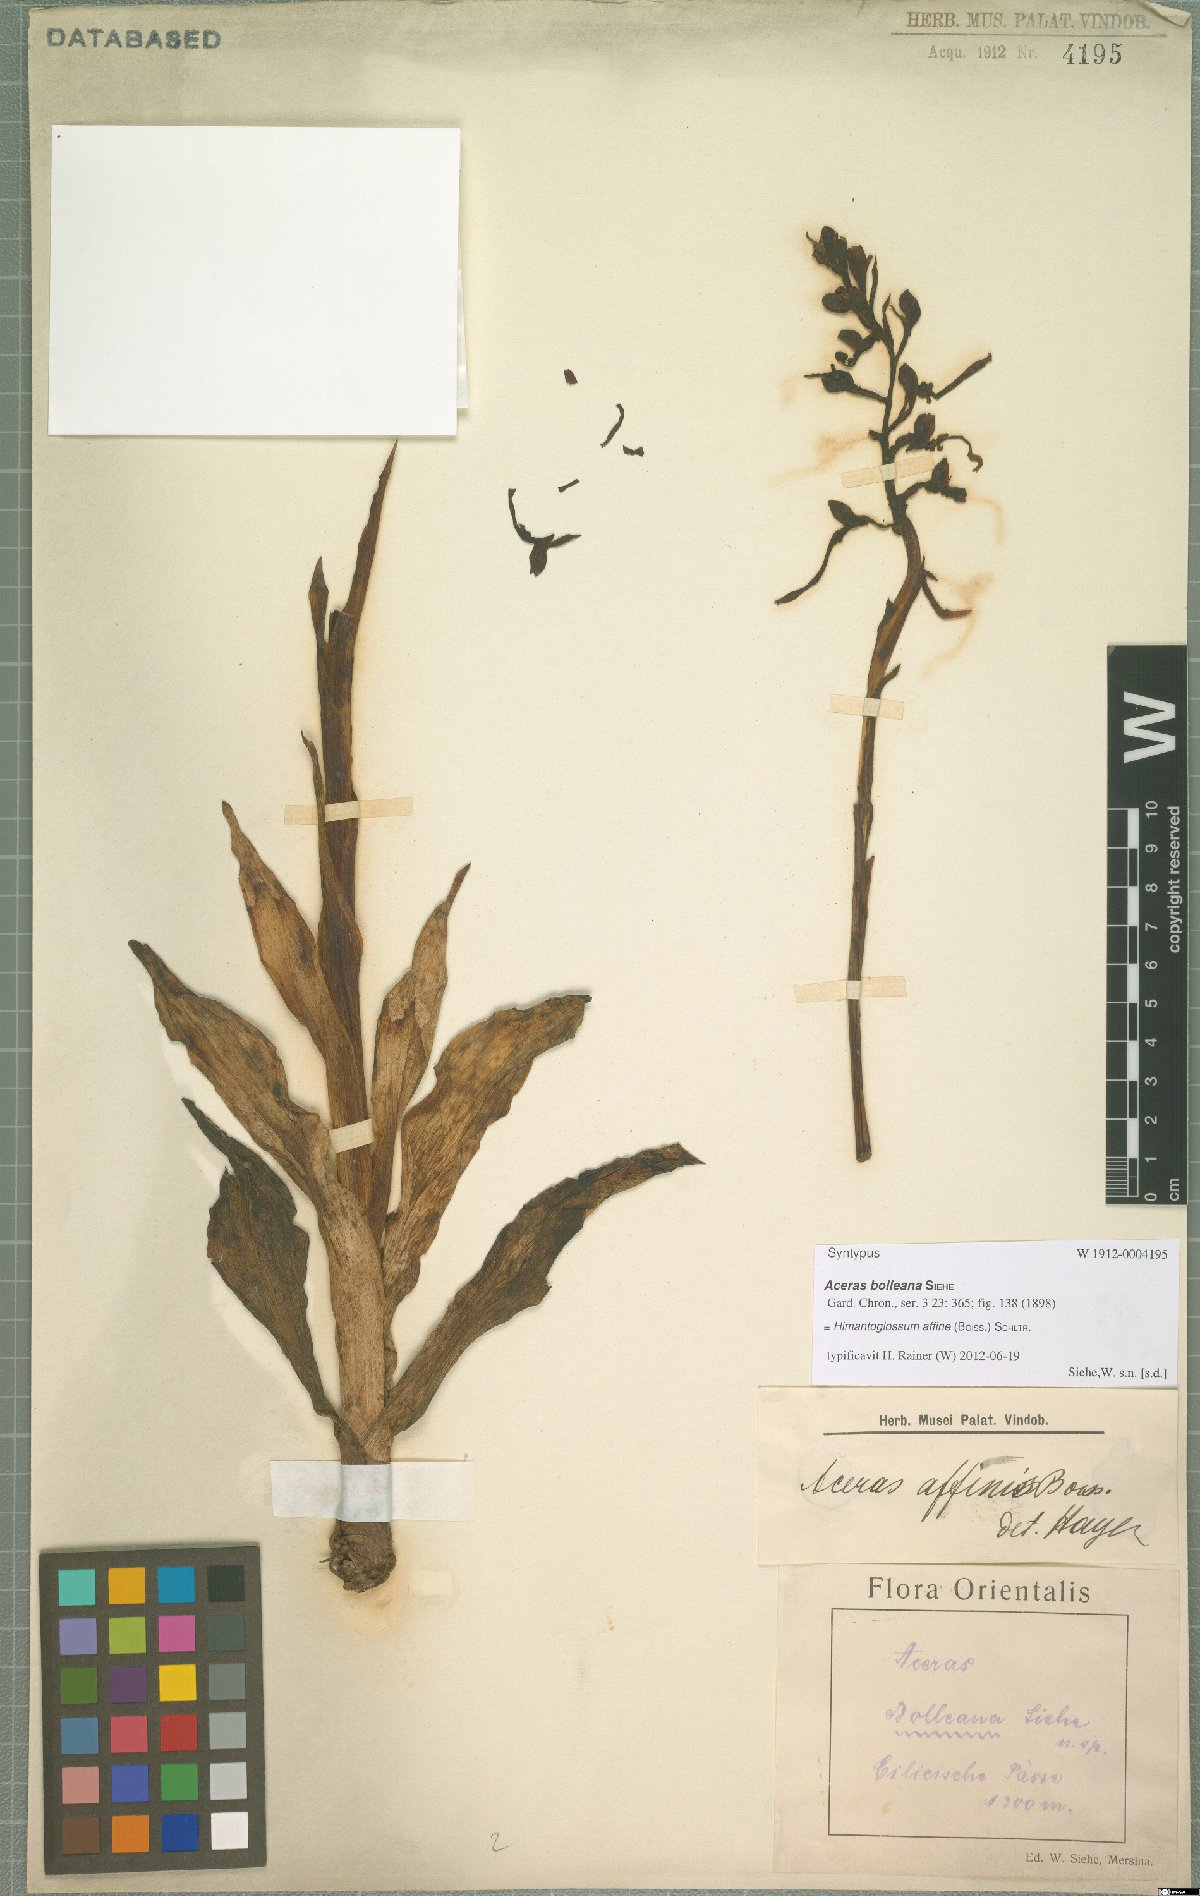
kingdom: Plantae
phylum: Tracheophyta
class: Liliopsida
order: Asparagales
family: Orchidaceae
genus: Himantoglossum
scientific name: Himantoglossum caprinum
